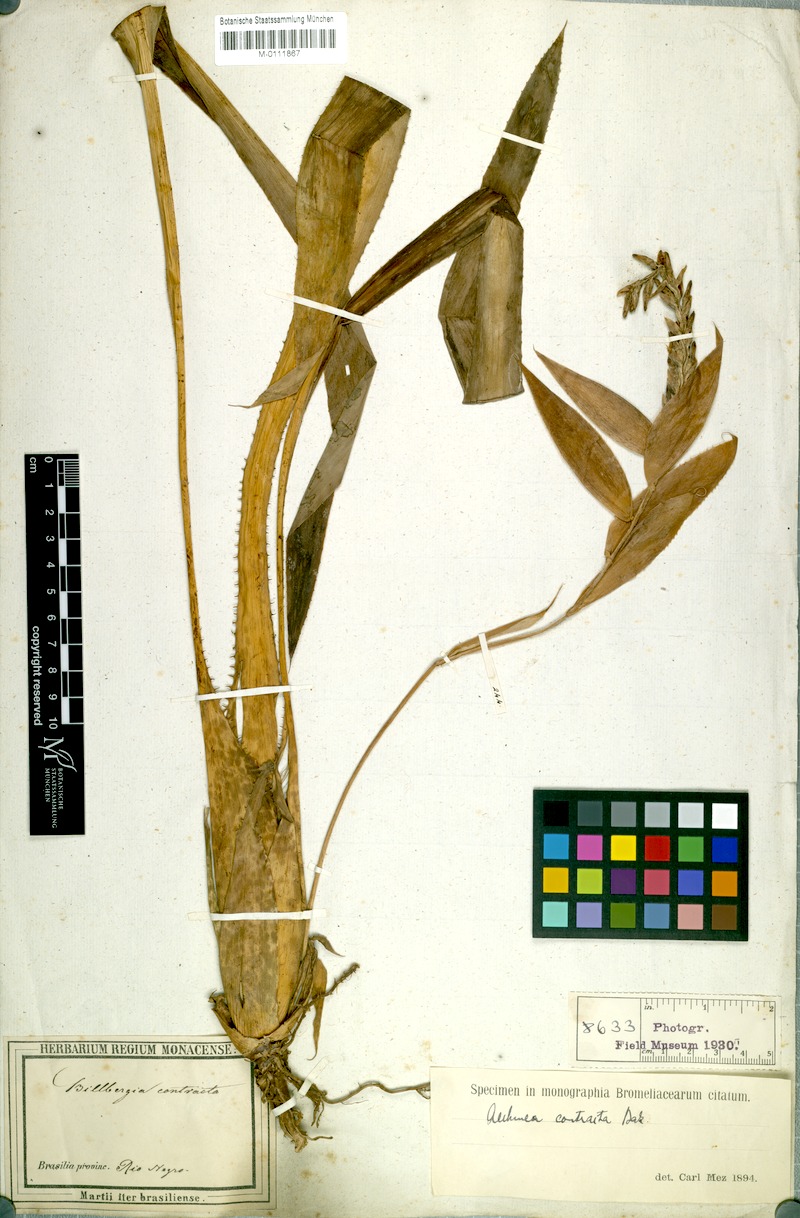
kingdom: Plantae
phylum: Tracheophyta
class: Liliopsida
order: Poales
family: Bromeliaceae
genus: Aechmea
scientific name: Aechmea contracta
